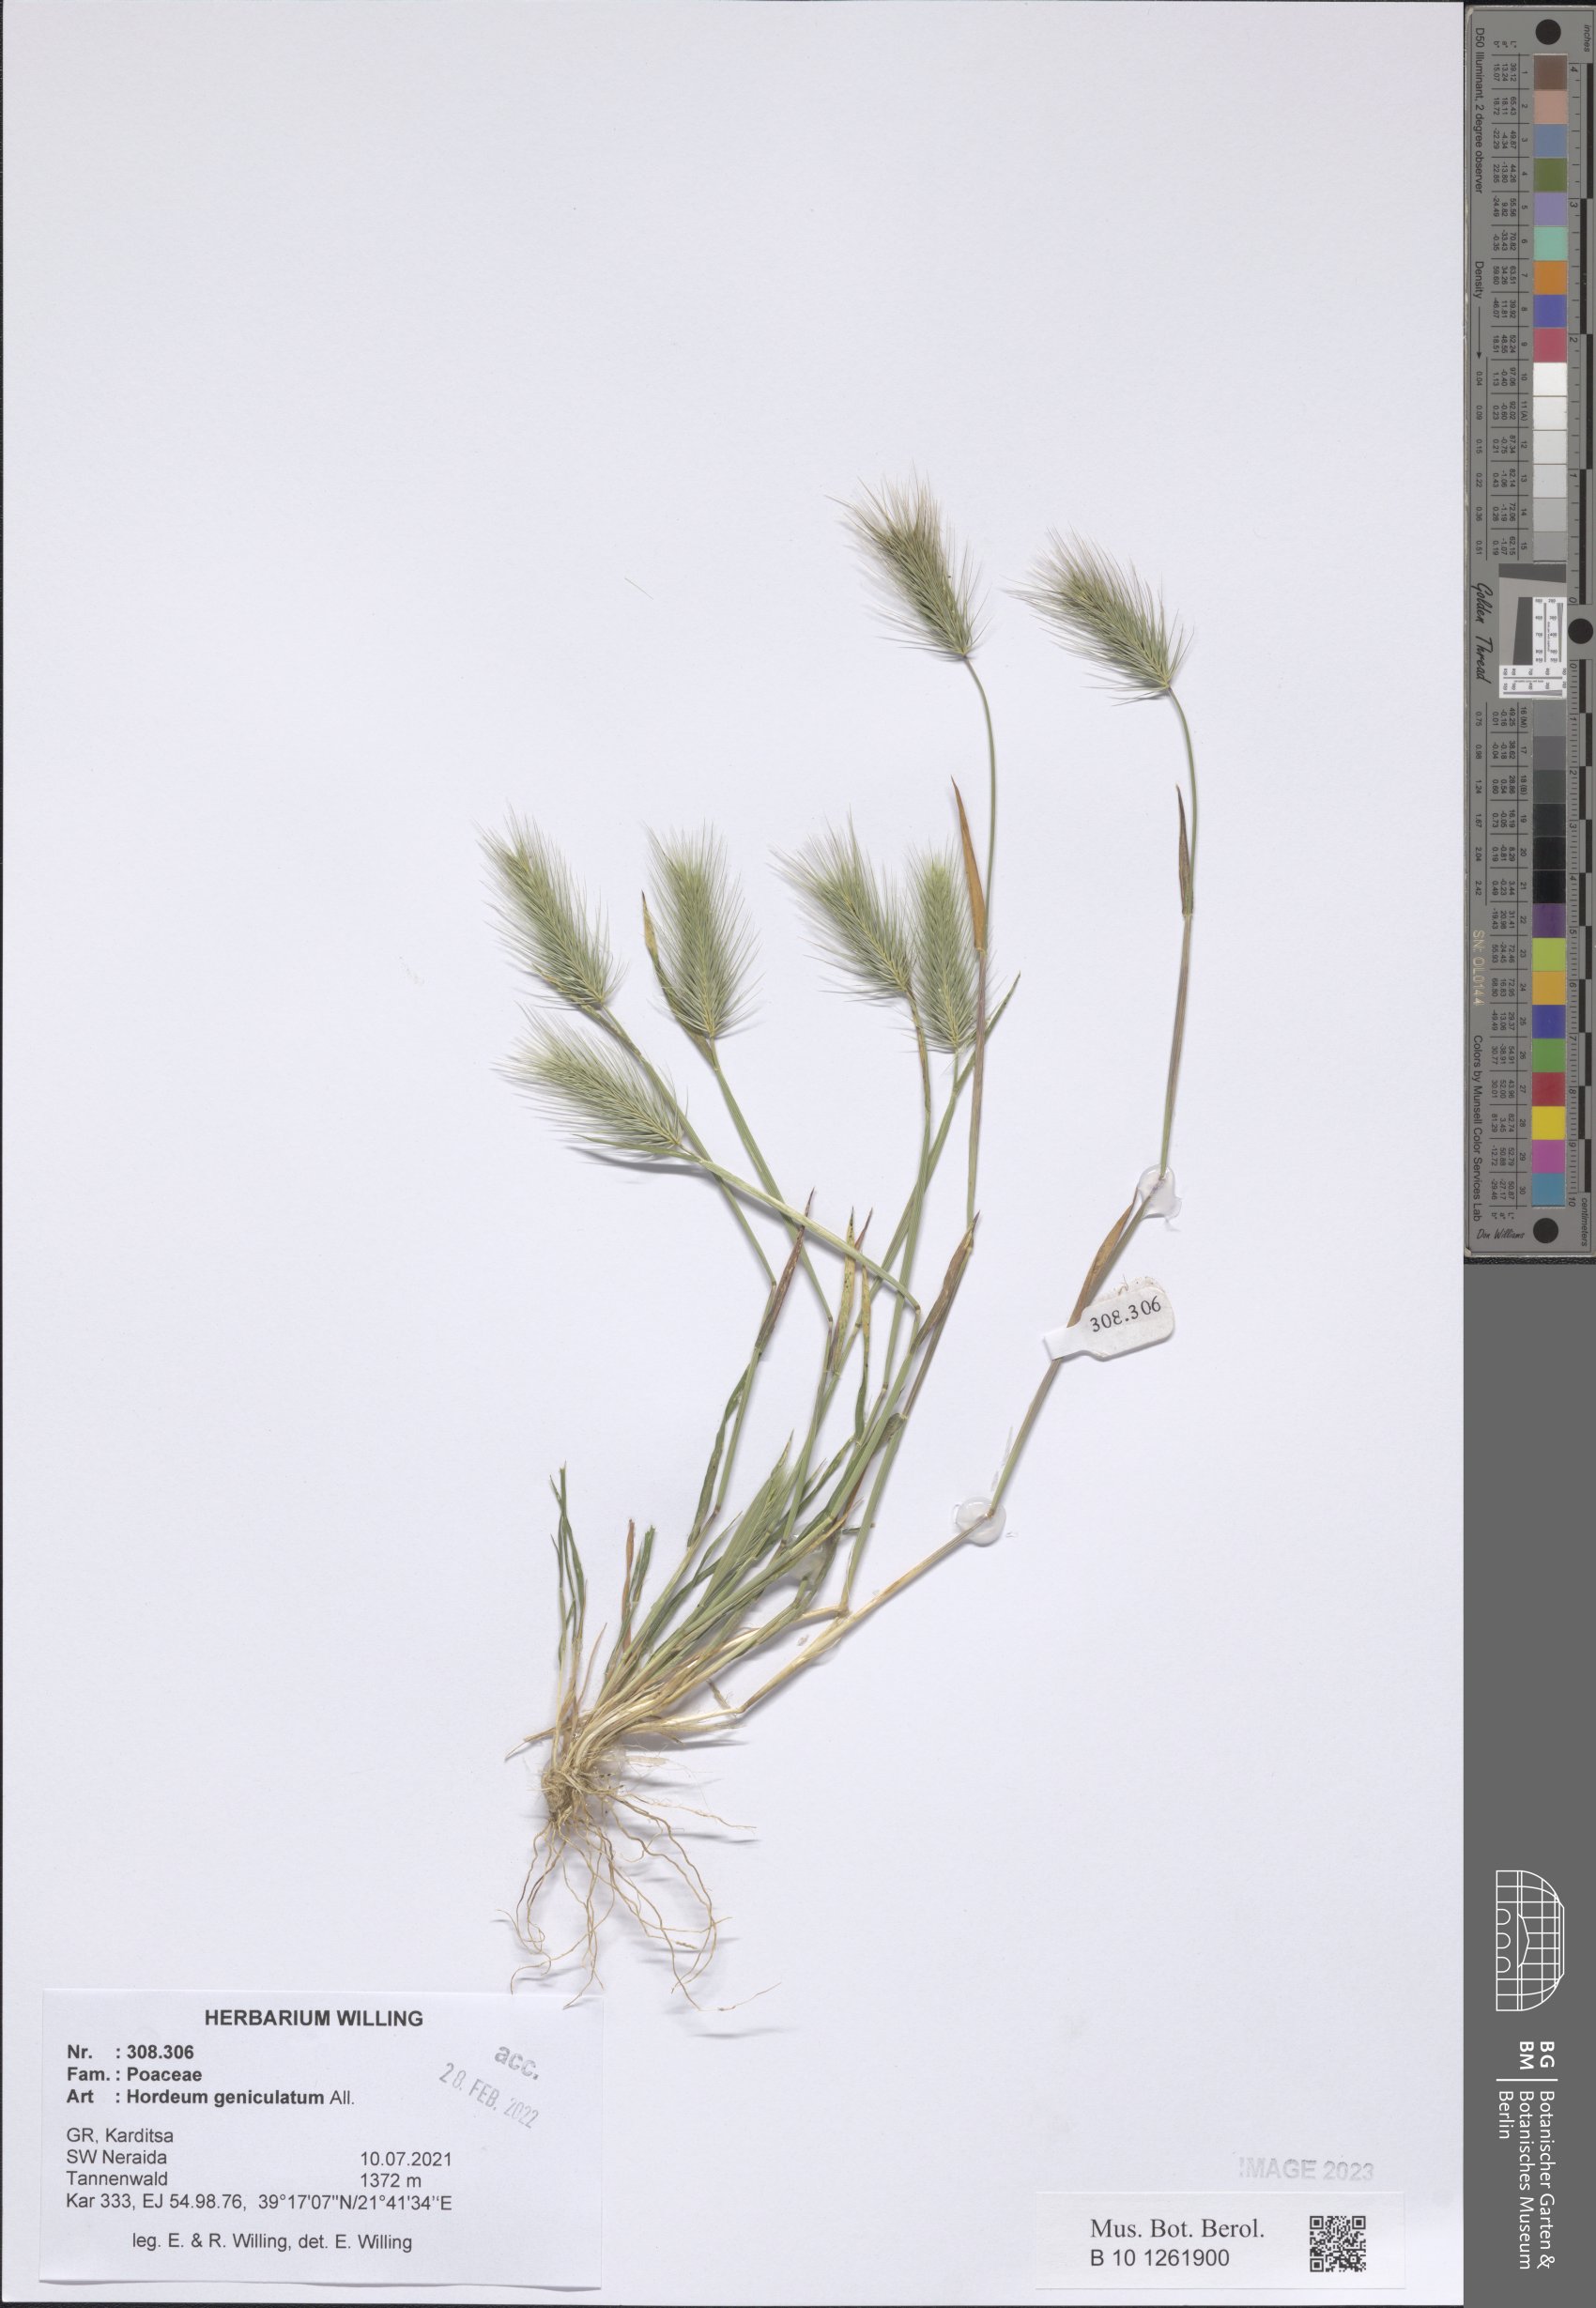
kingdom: Plantae
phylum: Tracheophyta
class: Liliopsida
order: Poales
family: Poaceae
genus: Hordeum
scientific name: Hordeum marinum
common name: Sea barley
